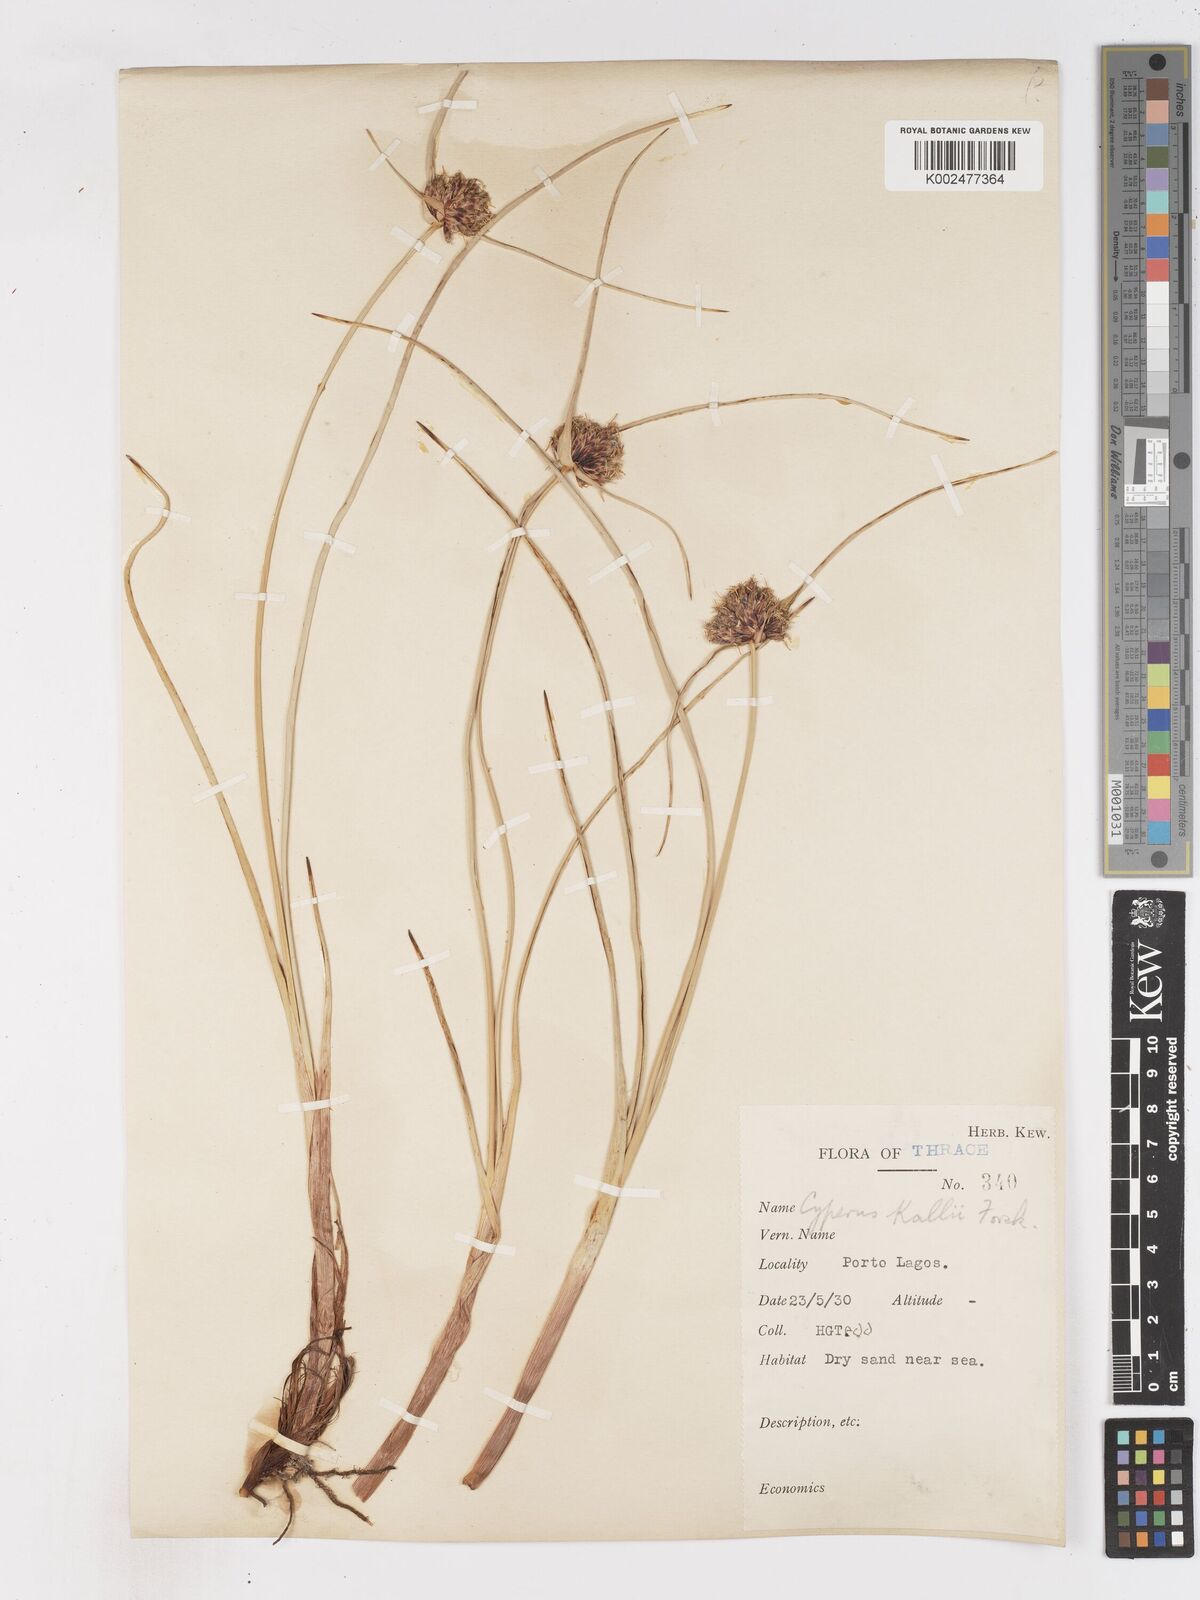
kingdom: Plantae
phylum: Tracheophyta
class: Liliopsida
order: Poales
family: Cyperaceae
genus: Cyperus
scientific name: Cyperus capitatus
